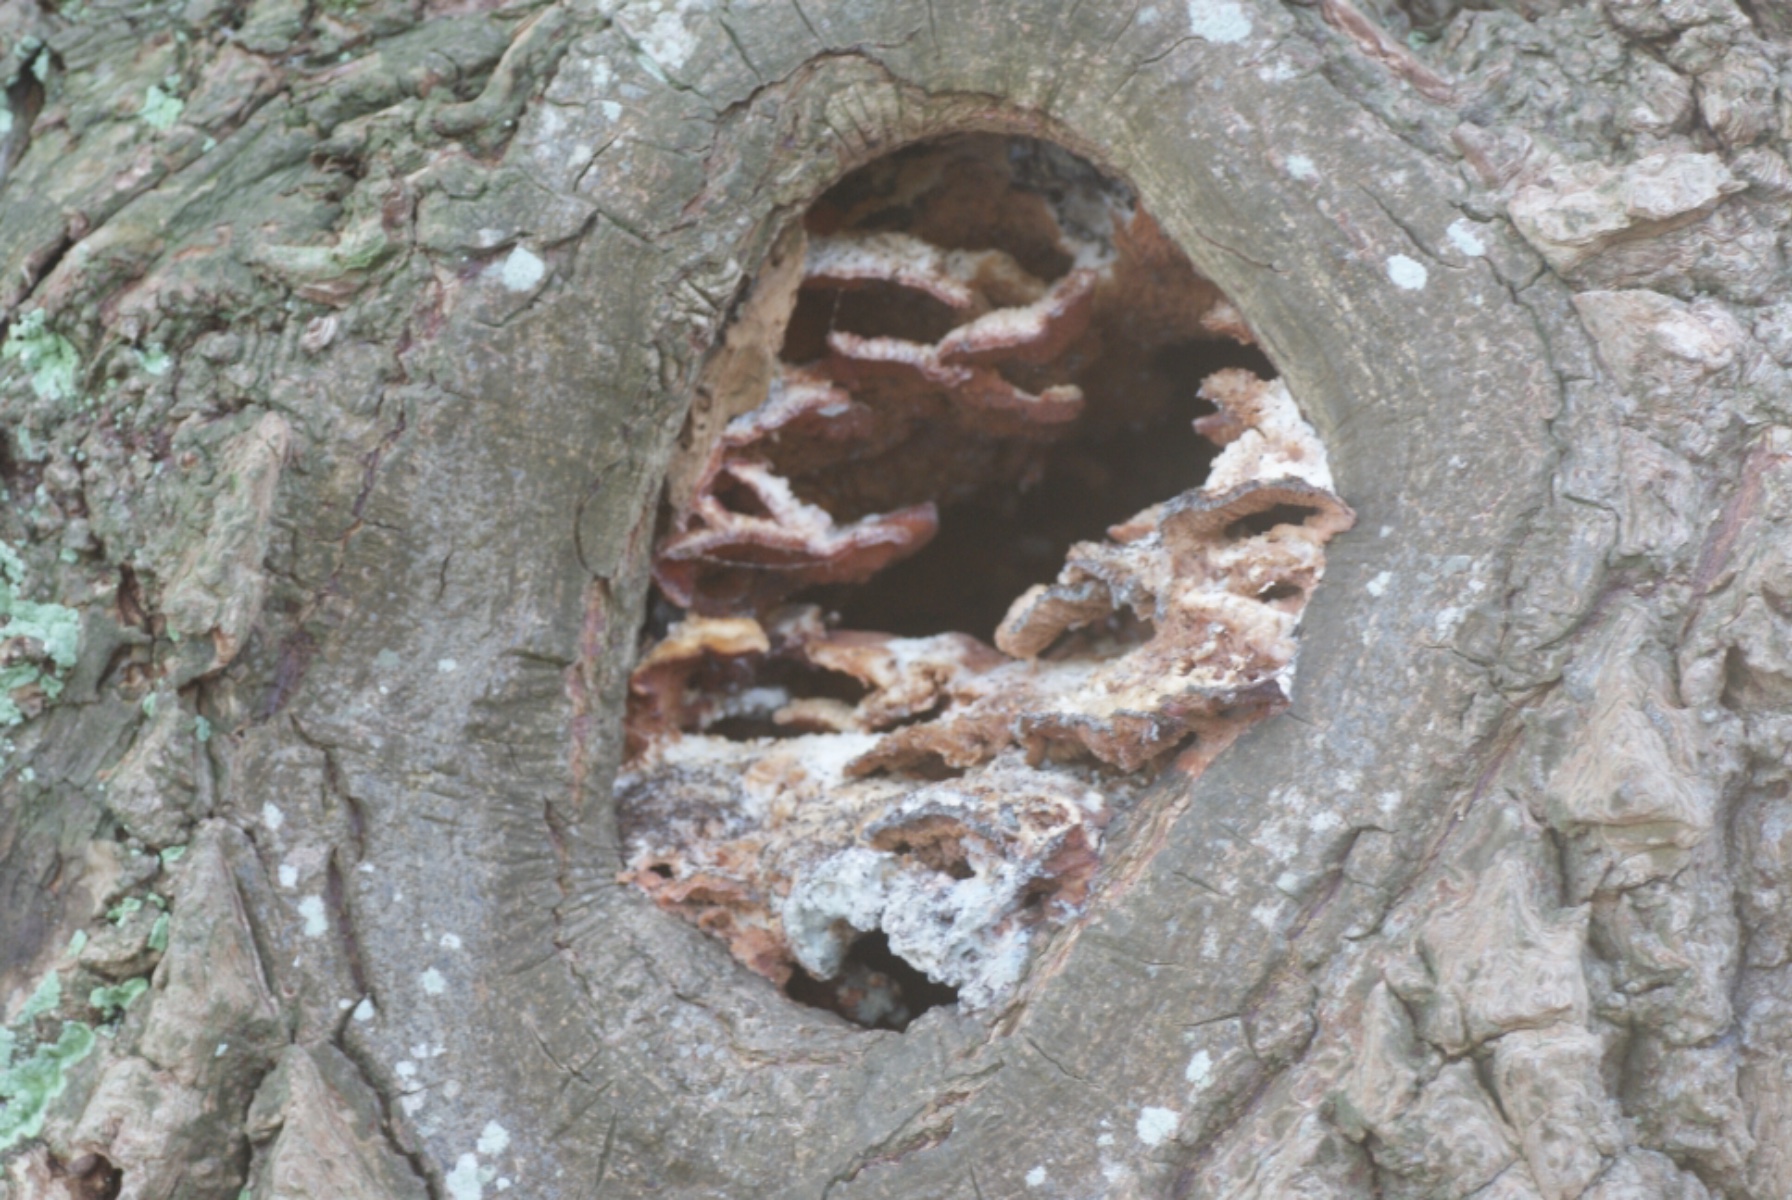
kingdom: Fungi
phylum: Basidiomycota
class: Agaricomycetes
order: Polyporales
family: Meruliaceae
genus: Phlebia
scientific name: Phlebia tremellosa
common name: bævrende åresvamp
